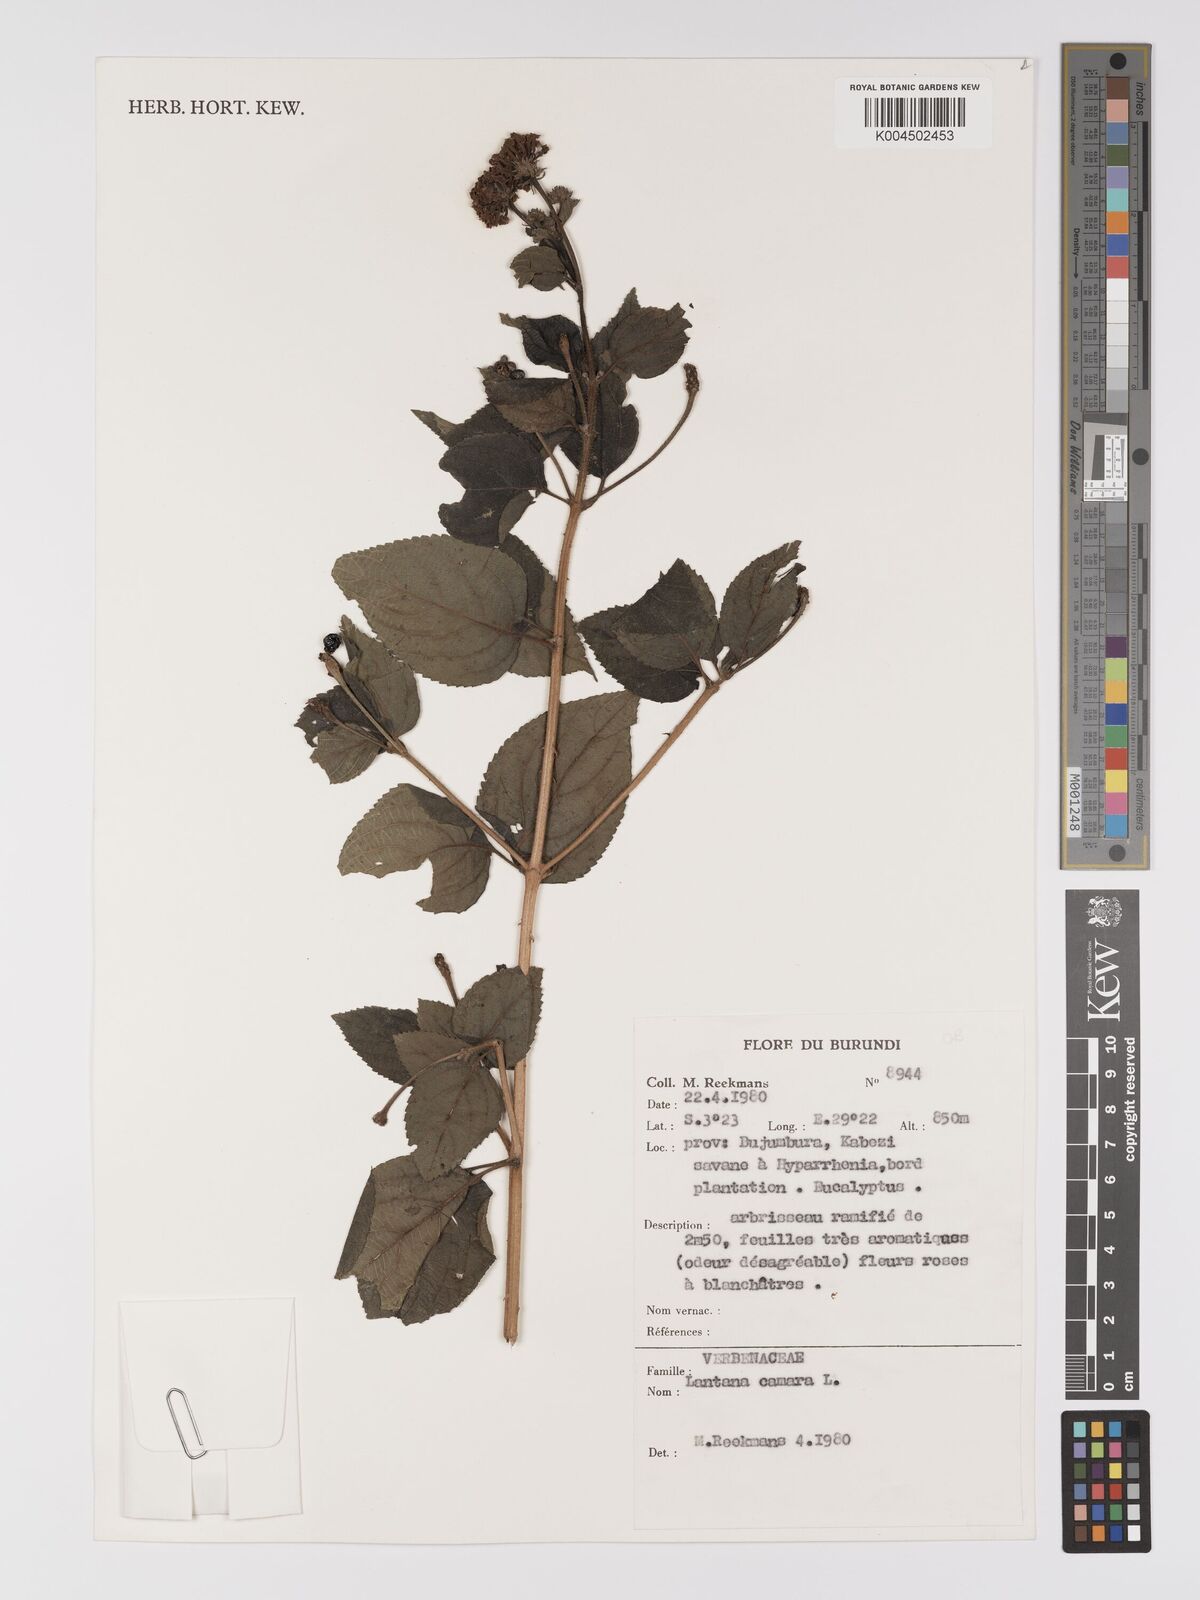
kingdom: Plantae
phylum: Tracheophyta
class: Magnoliopsida
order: Lamiales
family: Verbenaceae
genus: Lantana
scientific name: Lantana camara
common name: Lantana
